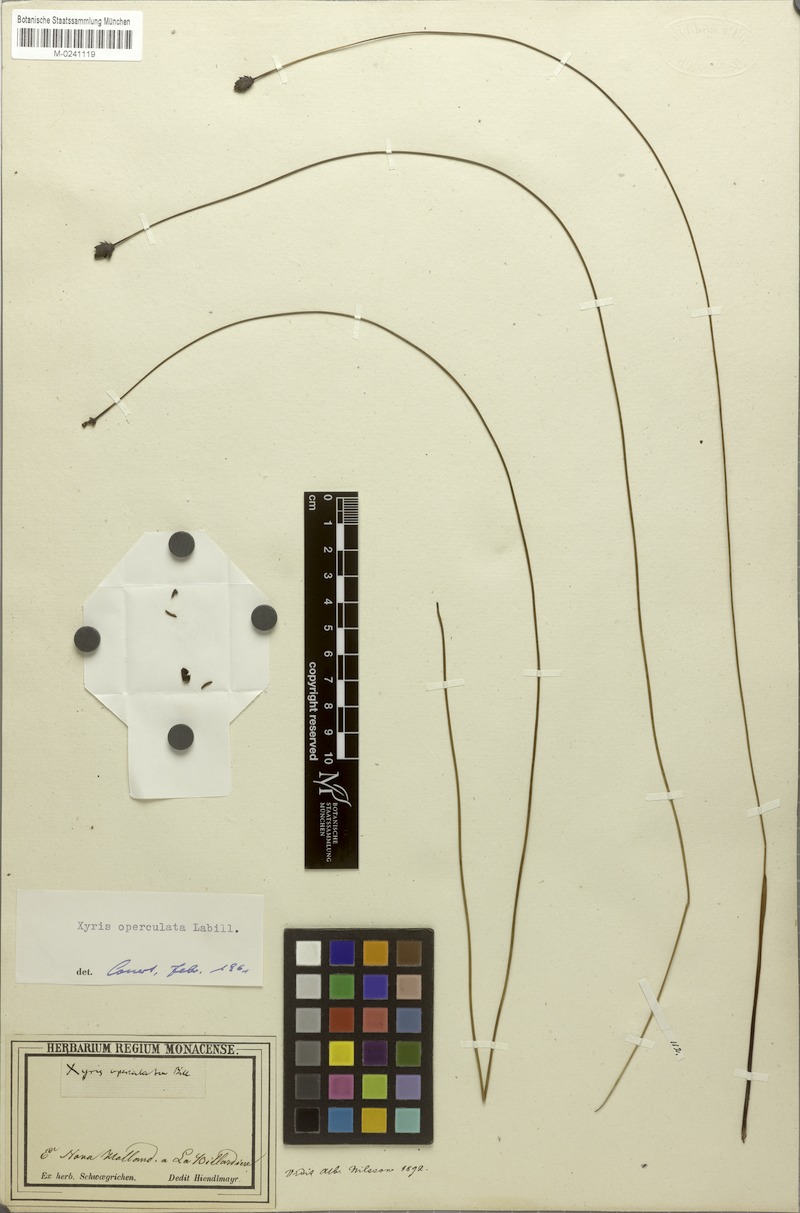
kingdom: Plantae
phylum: Tracheophyta
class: Liliopsida
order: Poales
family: Xyridaceae
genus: Xyris
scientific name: Xyris operculata
